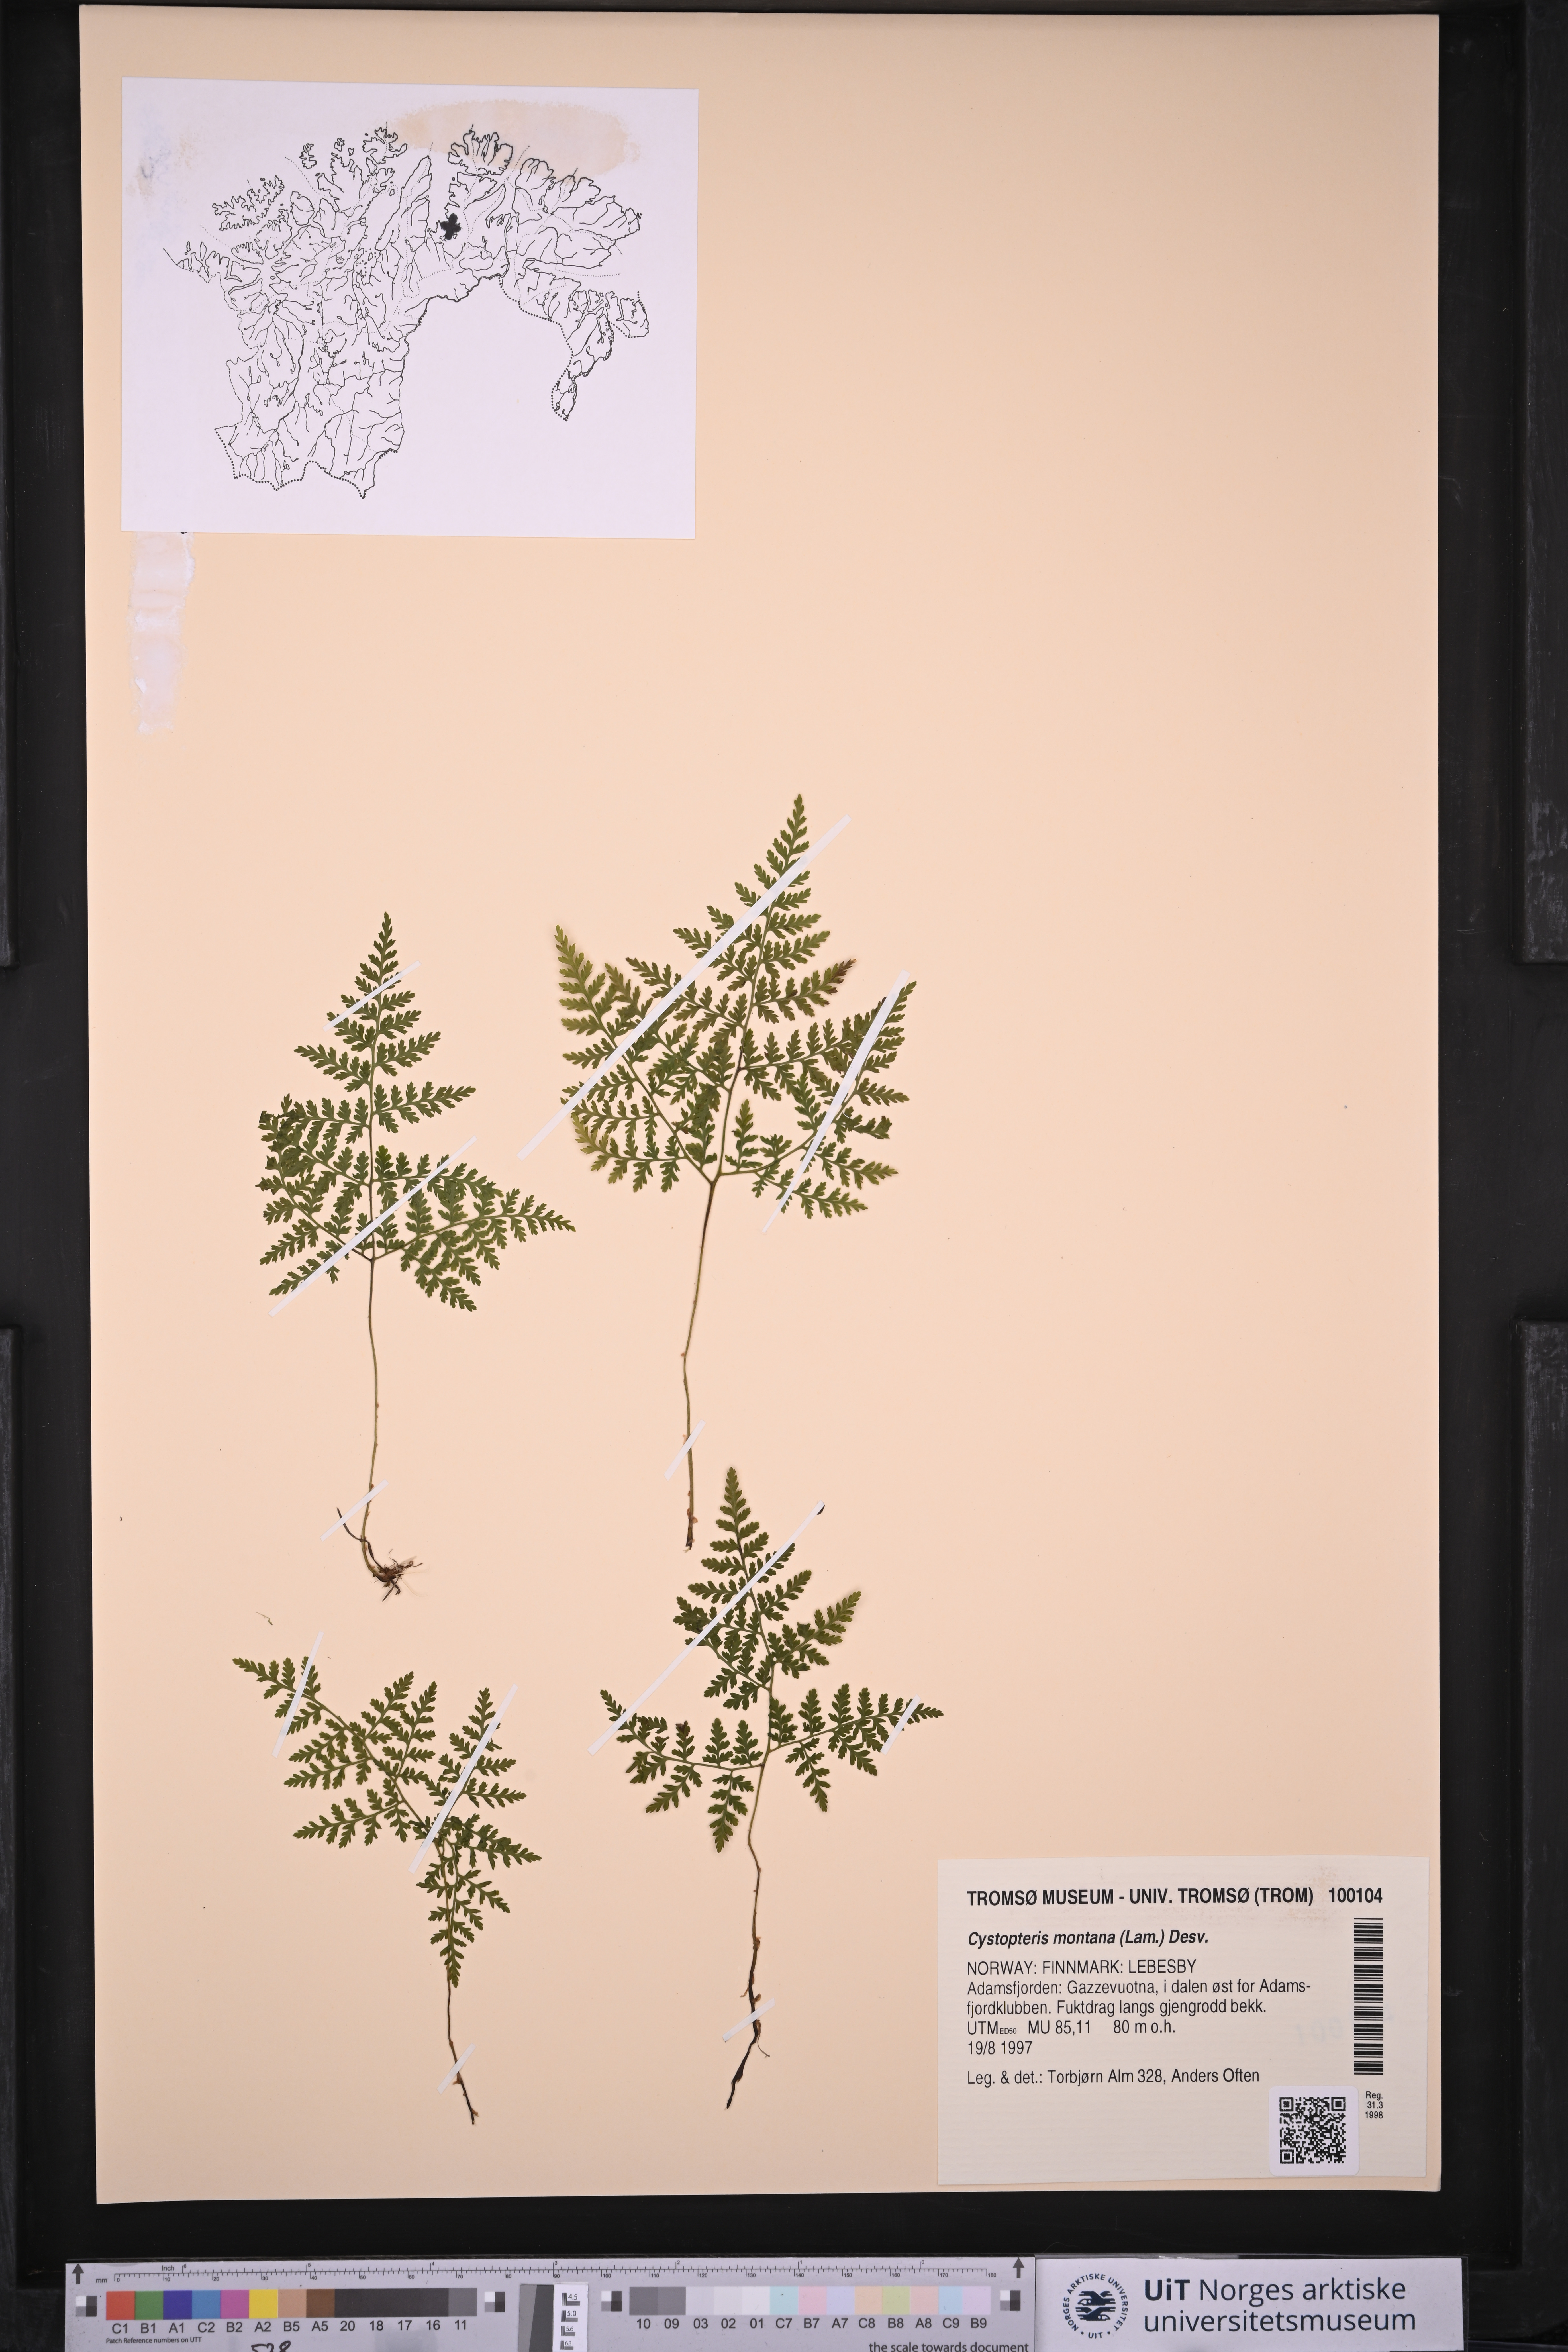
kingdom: Plantae
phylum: Tracheophyta
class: Polypodiopsida
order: Polypodiales
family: Cystopteridaceae
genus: Cystopteris
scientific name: Cystopteris montana
